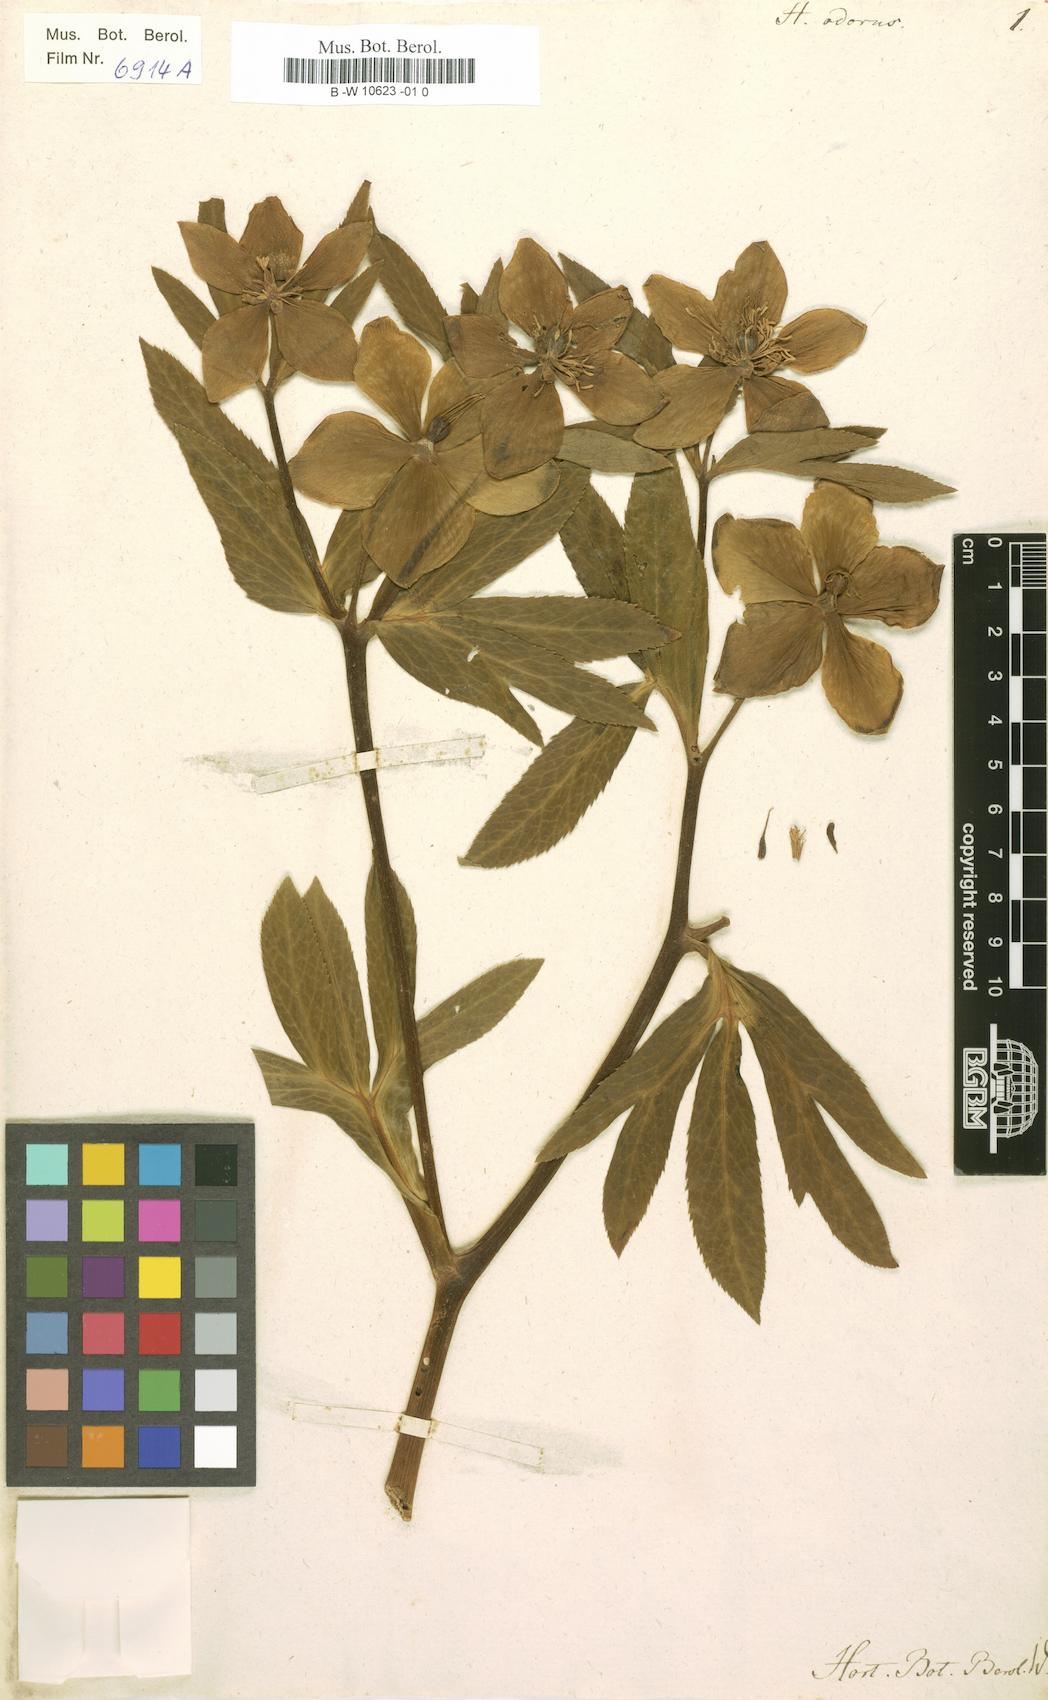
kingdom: Plantae
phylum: Tracheophyta
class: Magnoliopsida
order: Ranunculales
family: Ranunculaceae
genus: Helleborus
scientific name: Helleborus odorus
